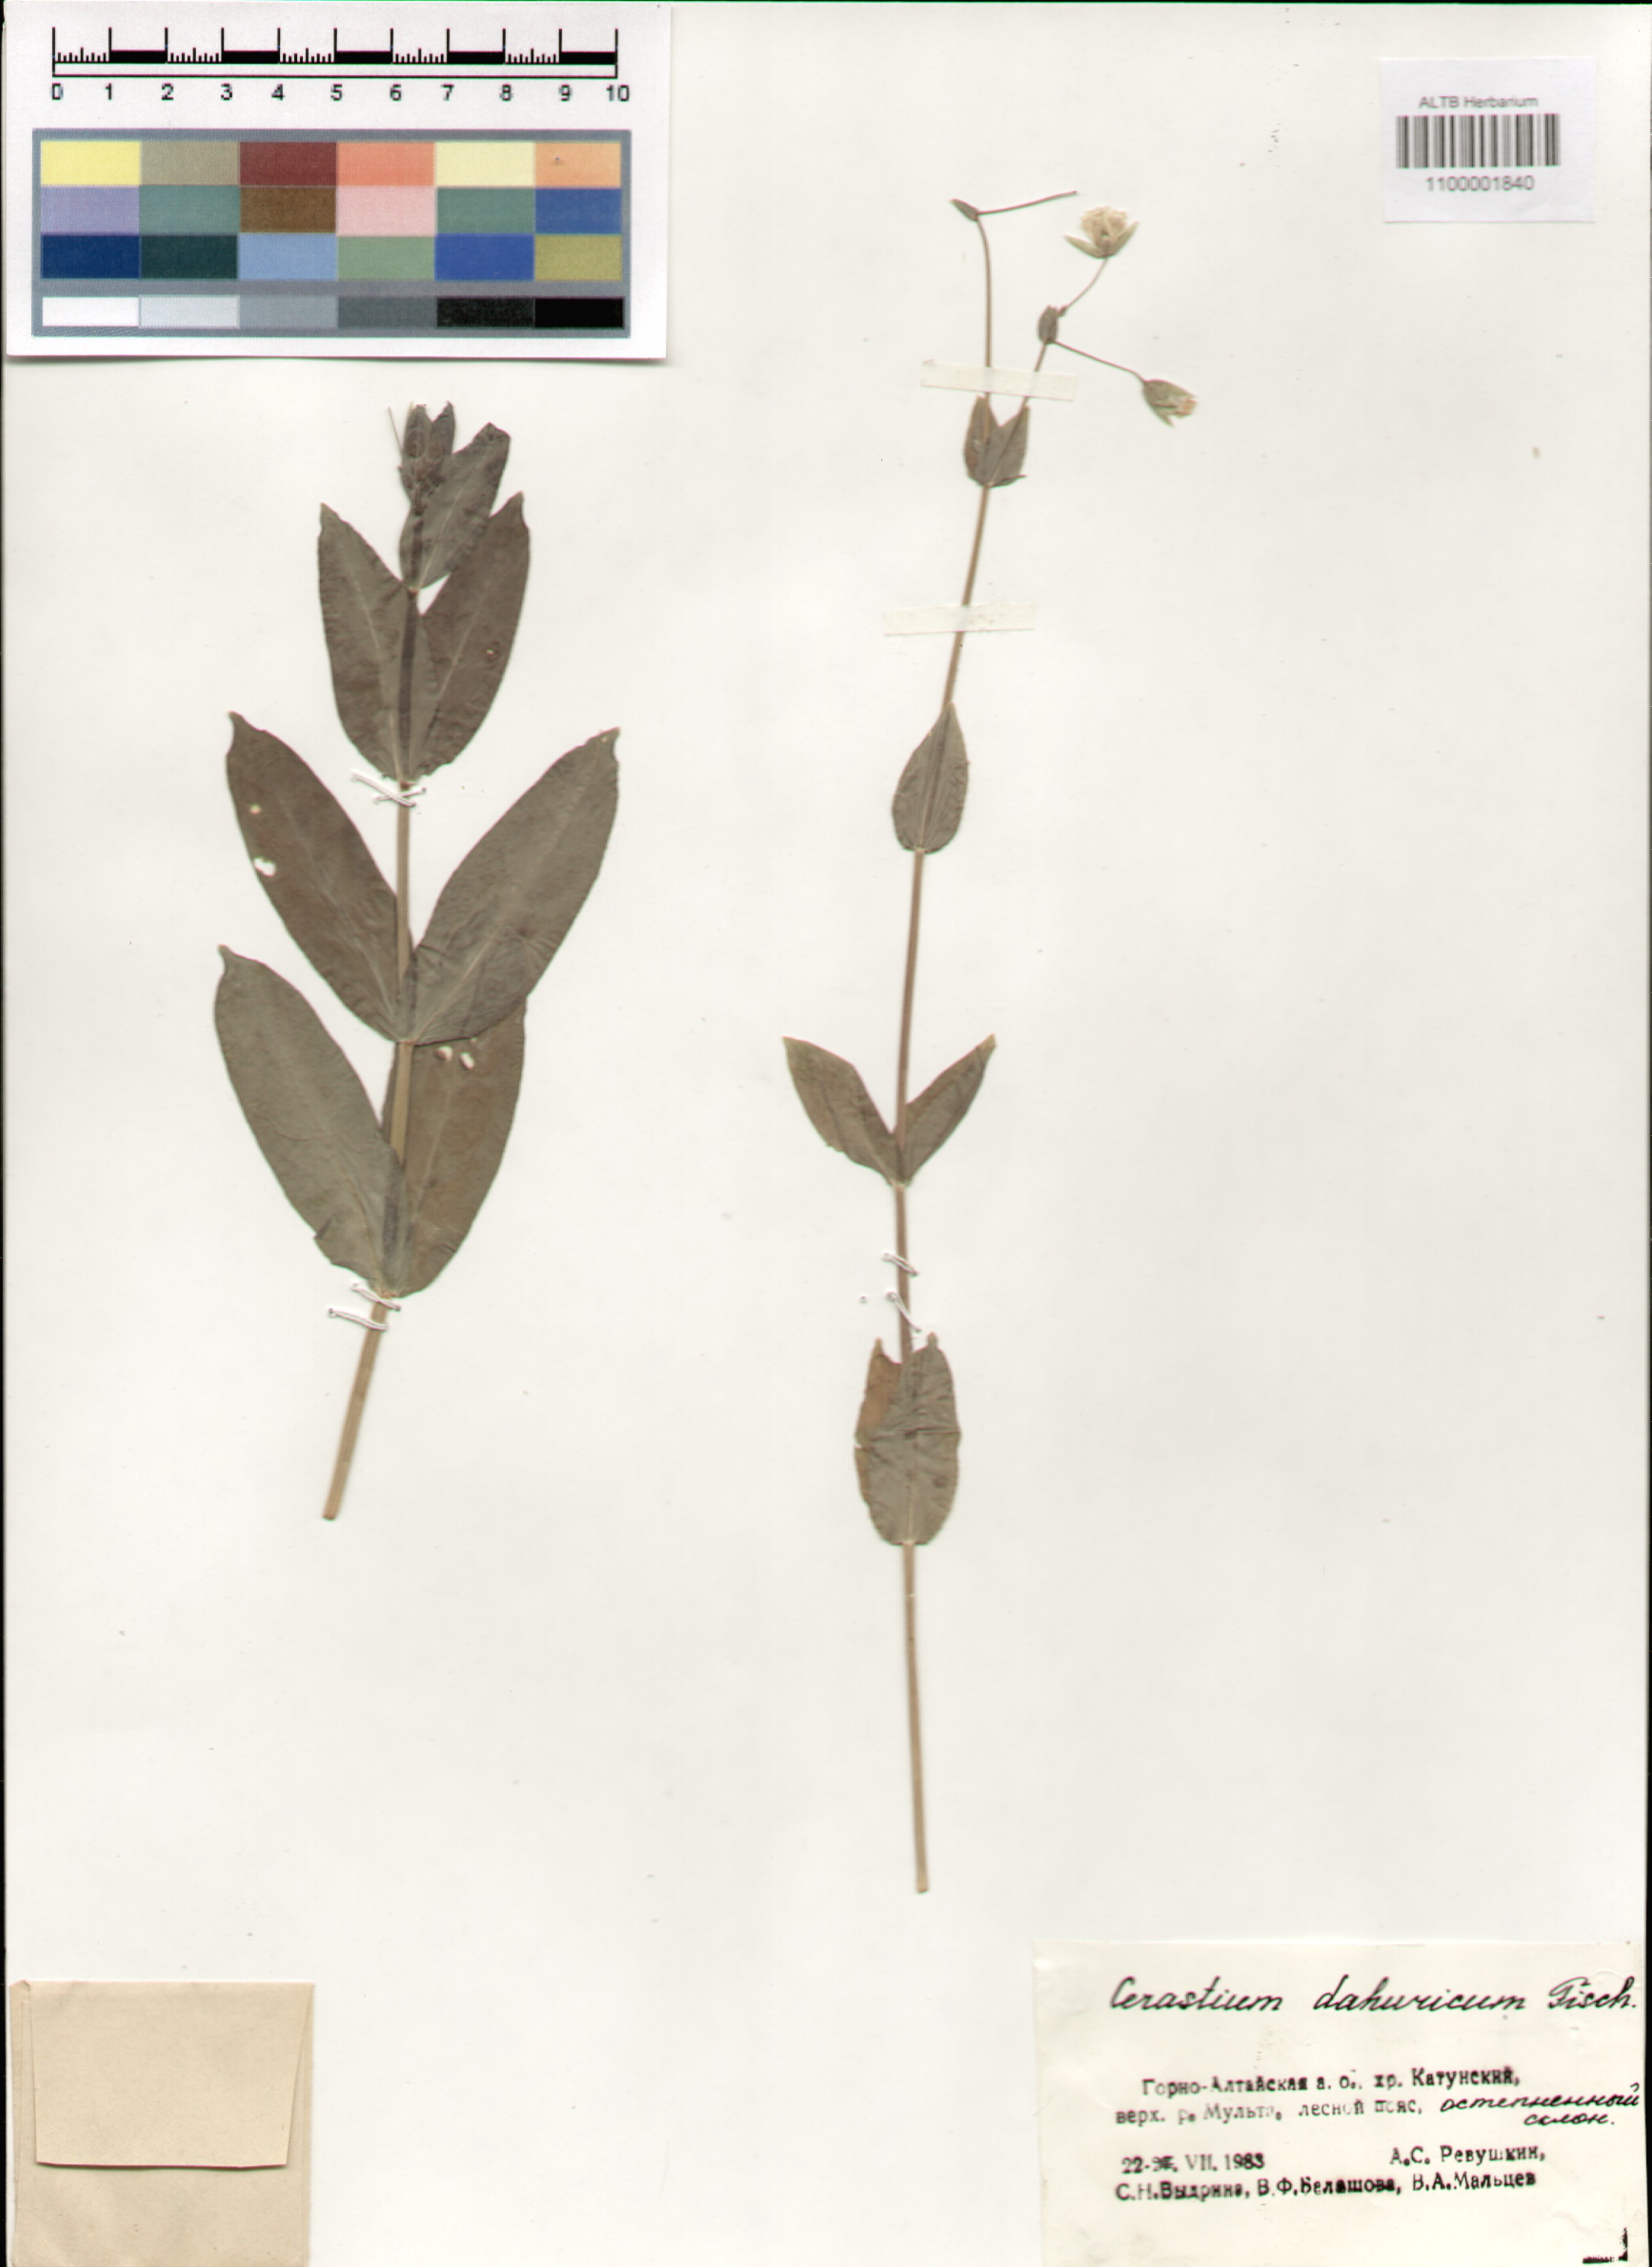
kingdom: Plantae
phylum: Tracheophyta
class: Magnoliopsida
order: Caryophyllales
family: Caryophyllaceae
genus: Dichodon
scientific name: Dichodon davuricum
